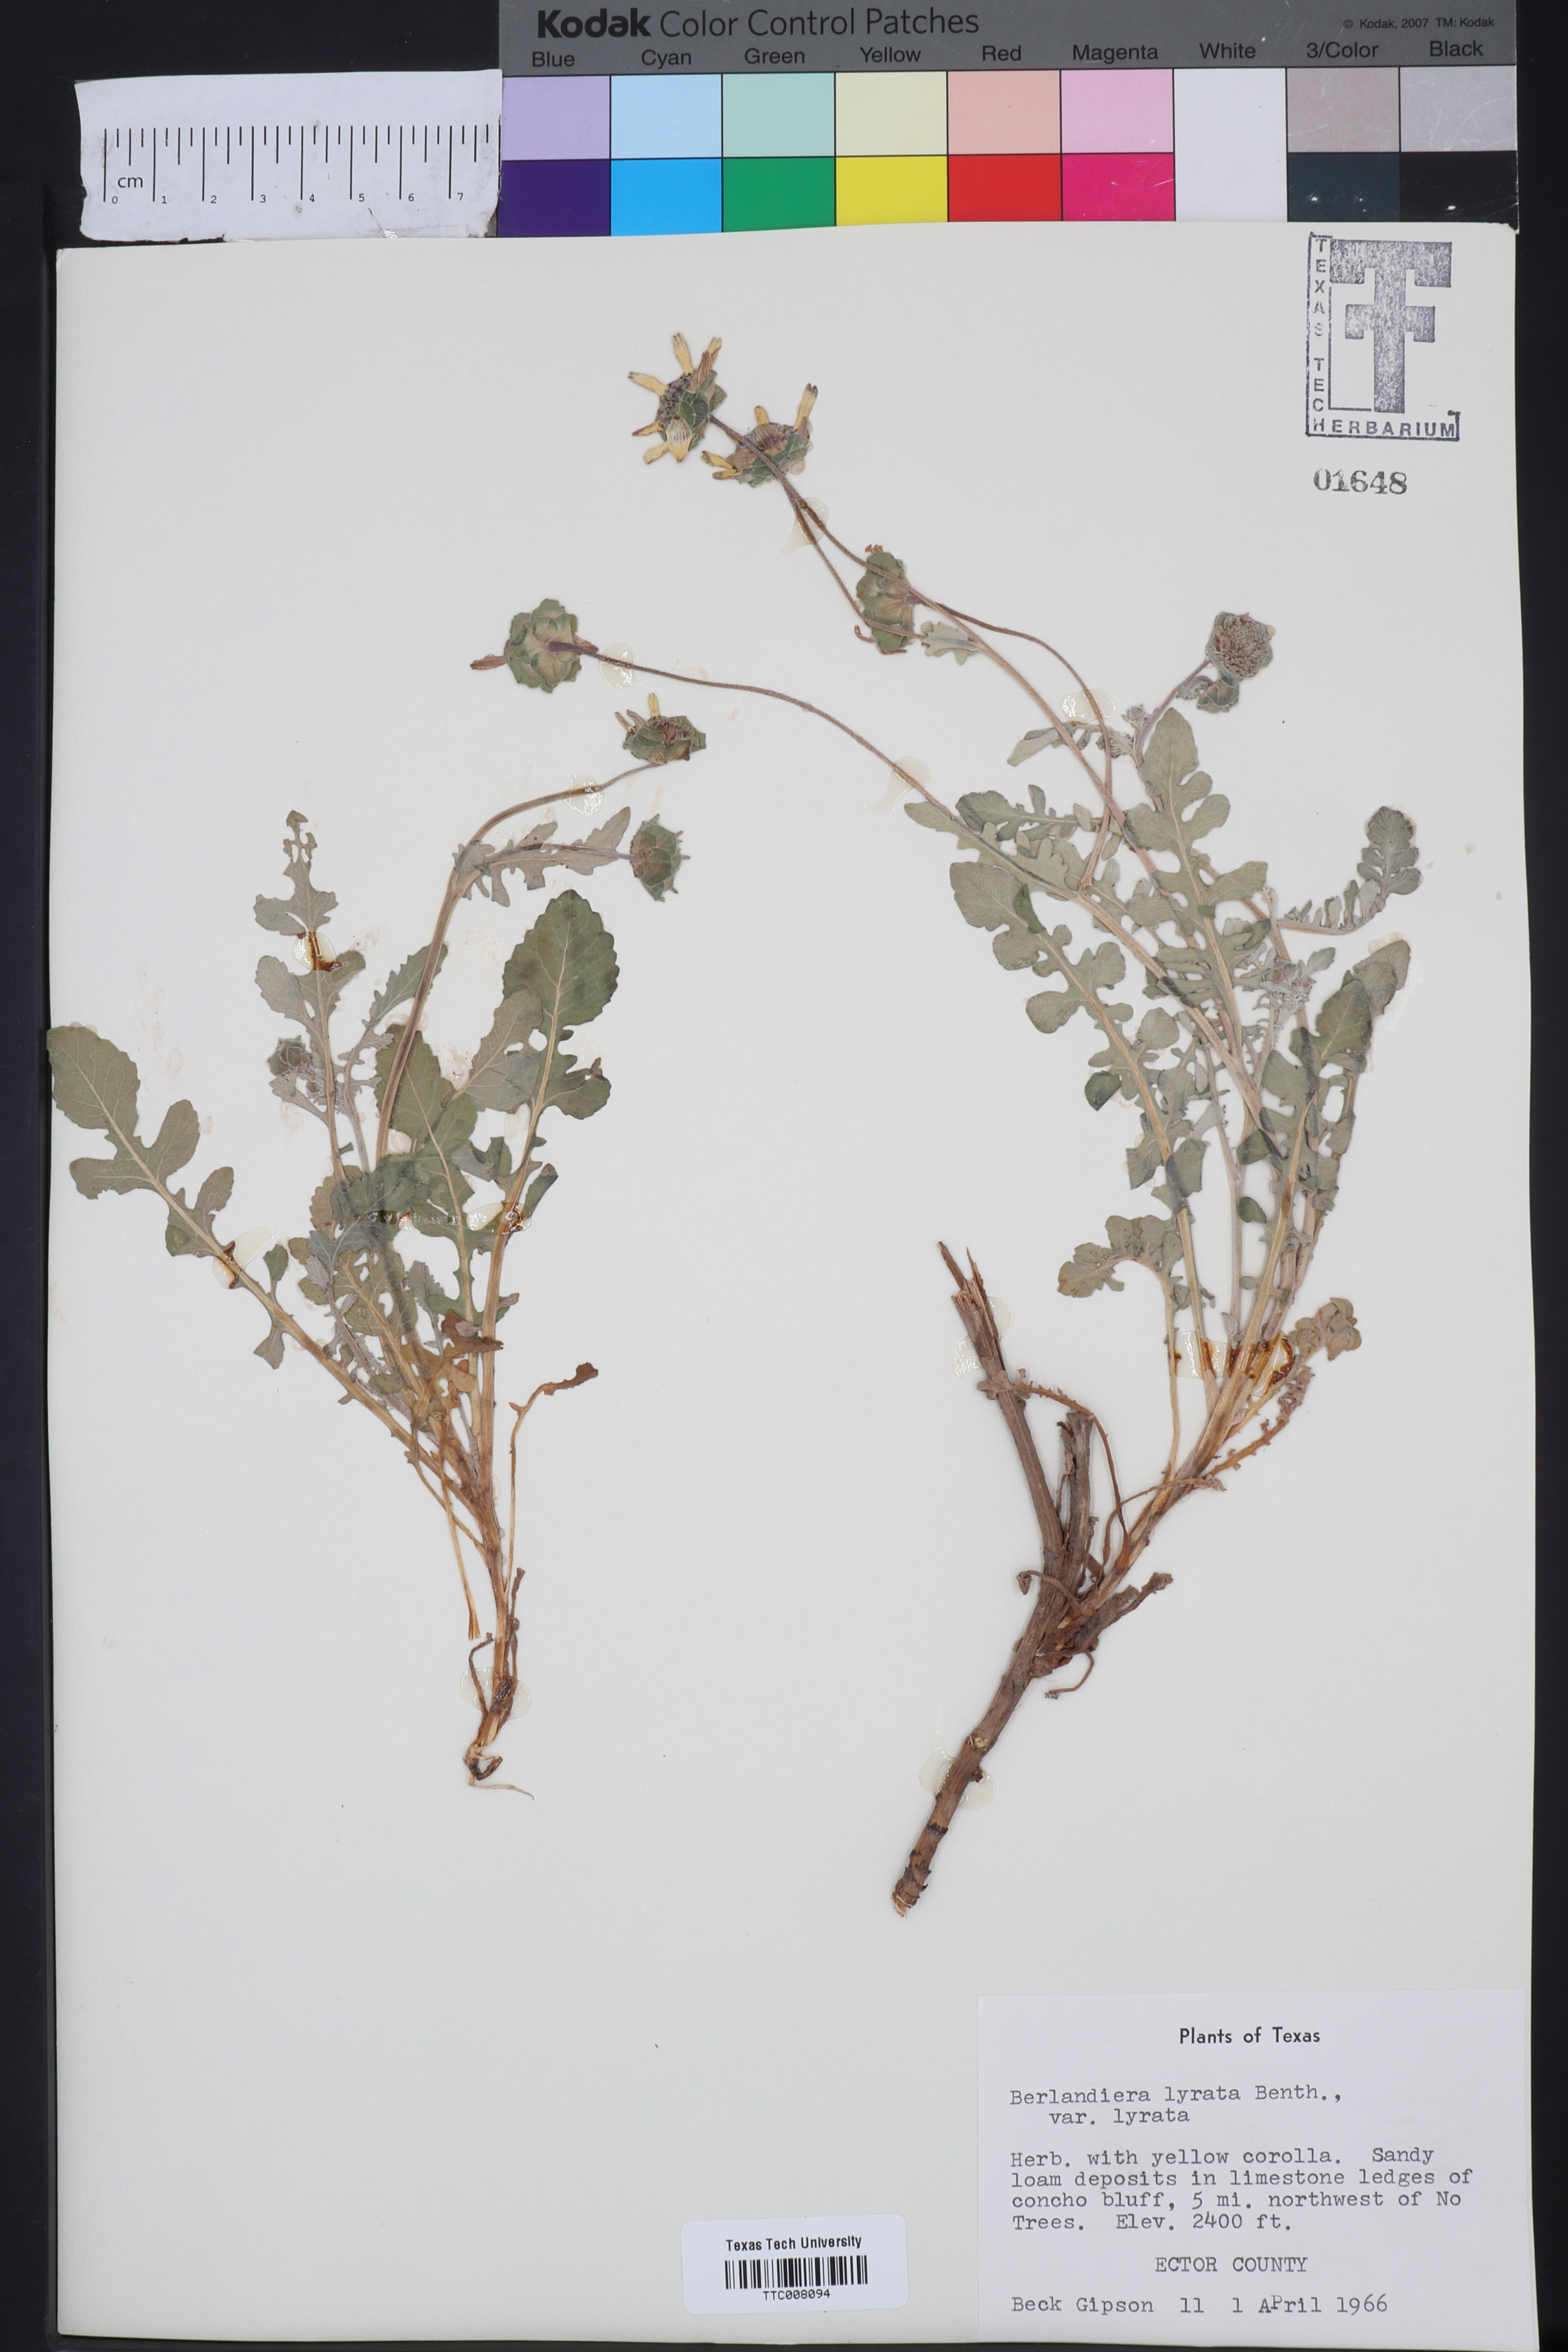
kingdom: Plantae
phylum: Tracheophyta
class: Magnoliopsida
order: Asterales
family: Asteraceae
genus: Berlandiera
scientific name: Berlandiera lyrata
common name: Chocolate-flower
